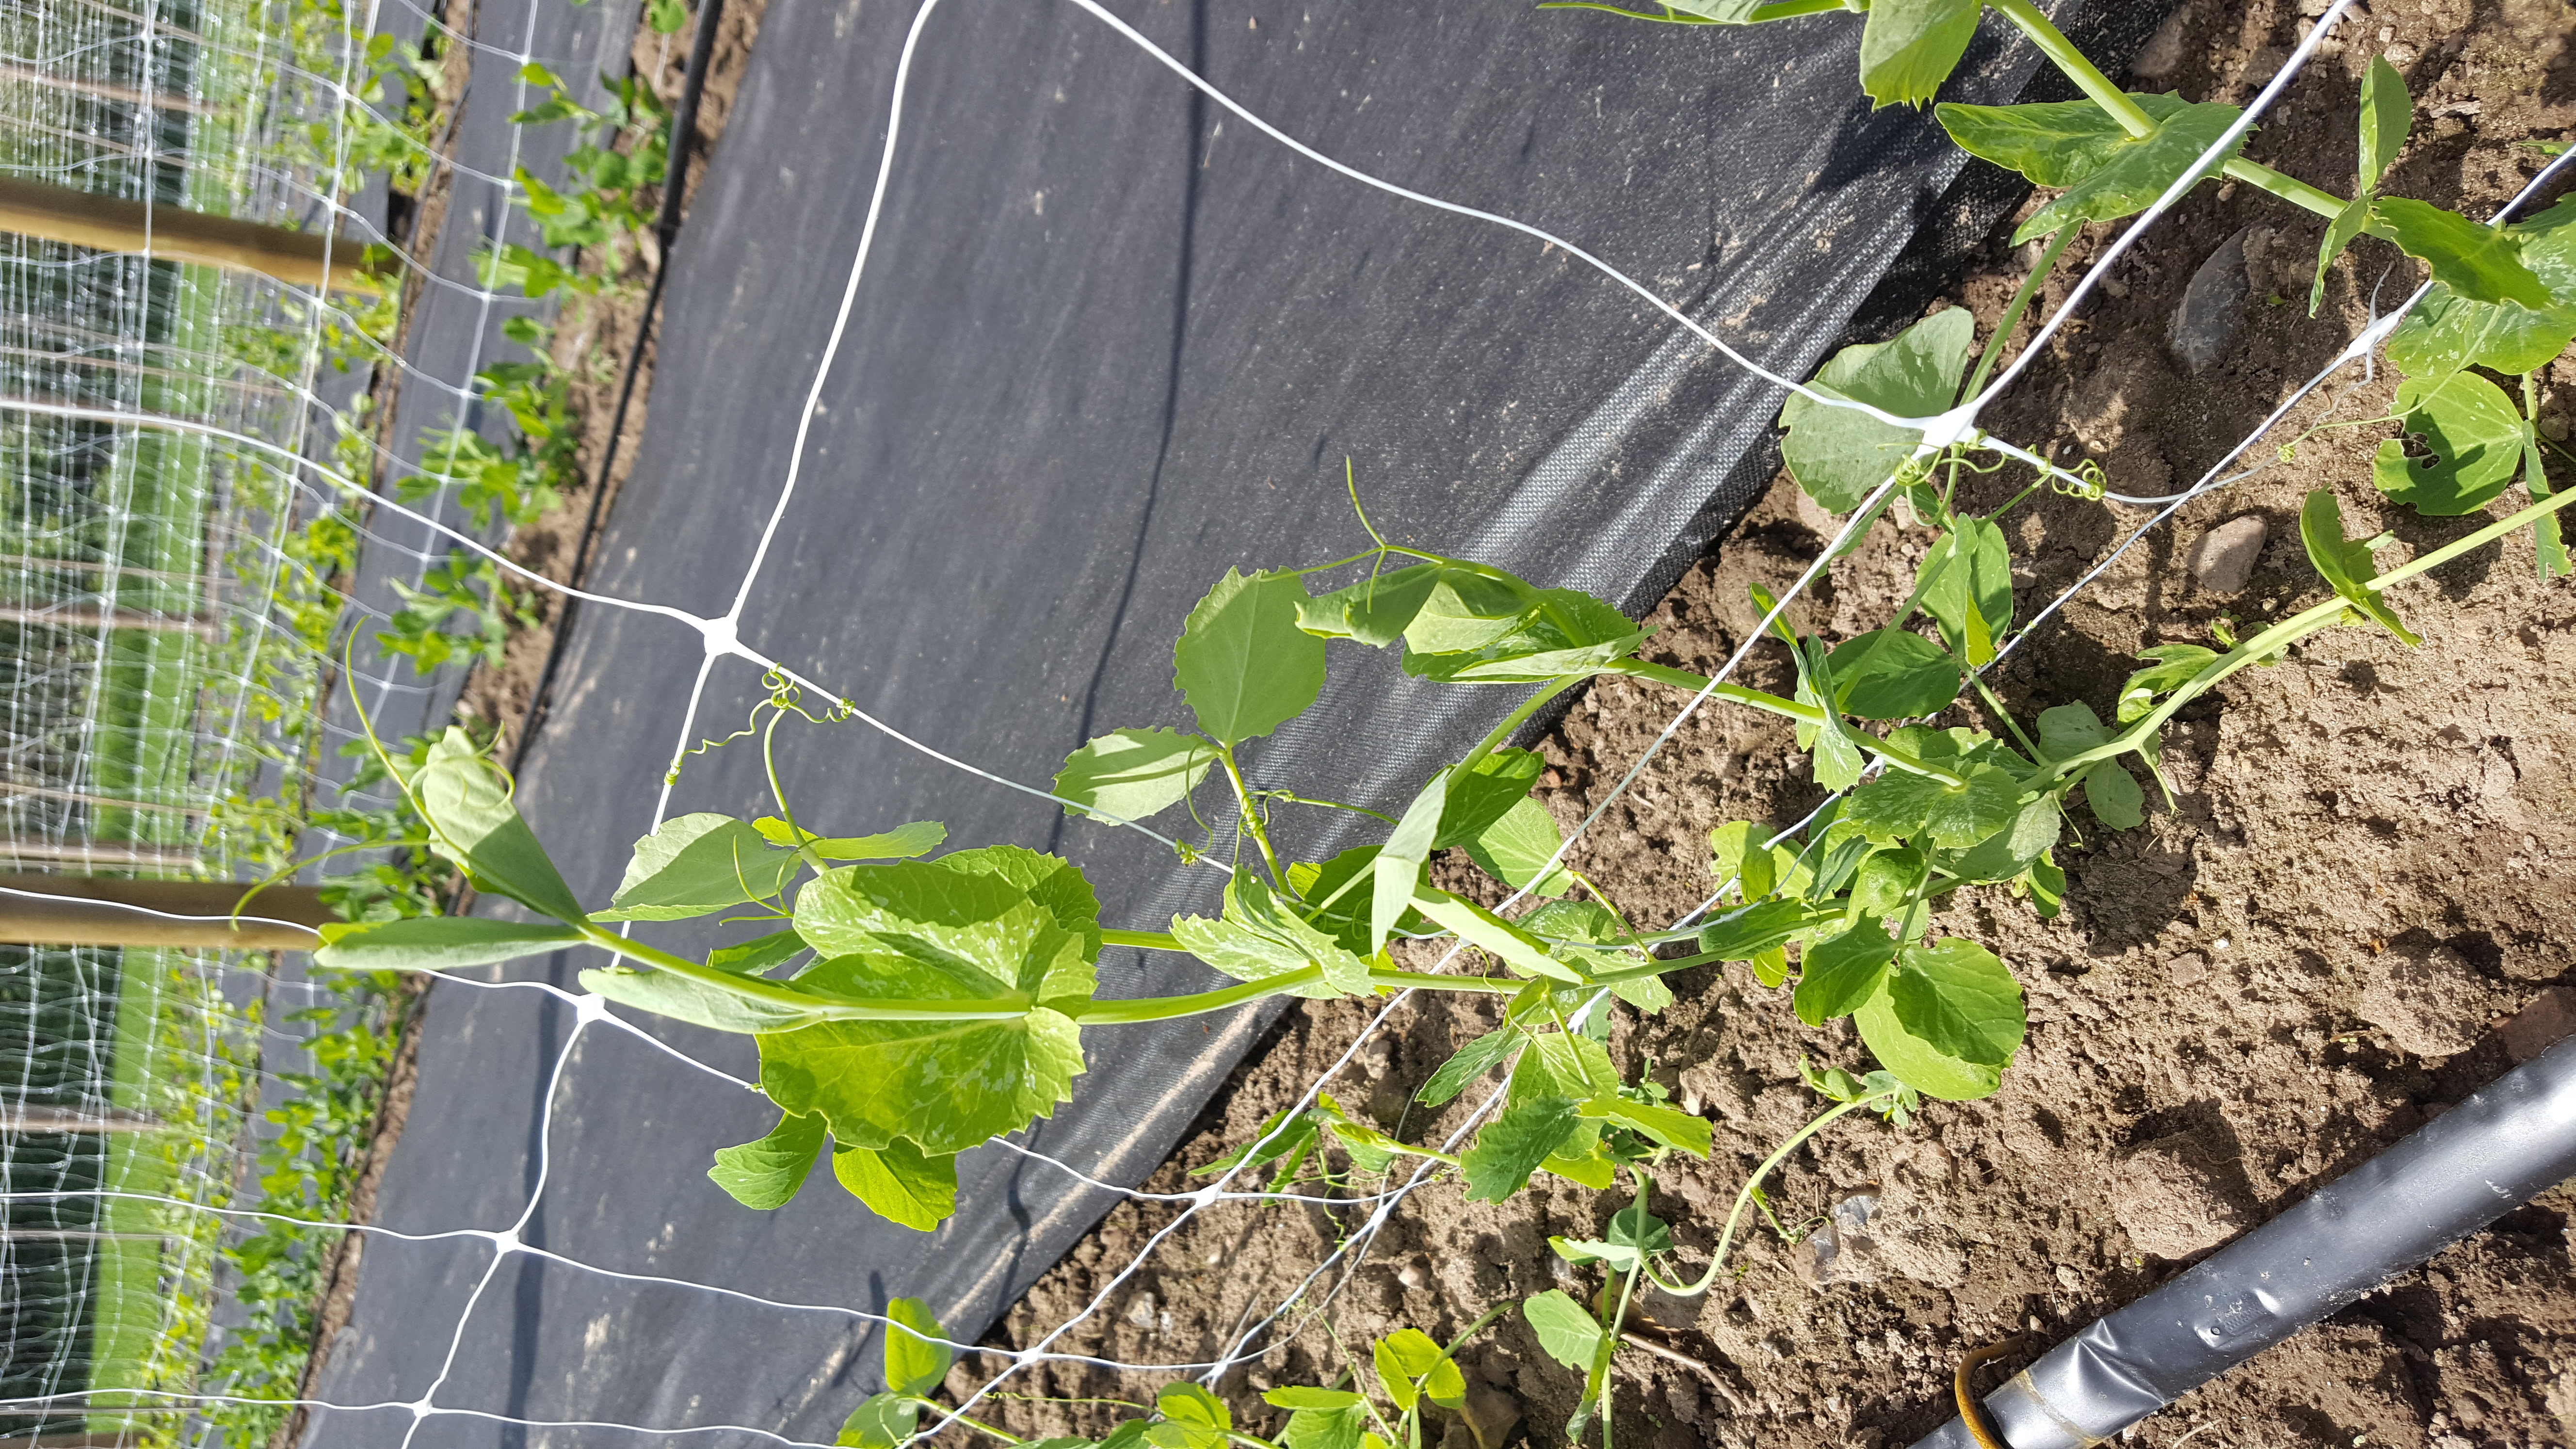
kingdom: Plantae
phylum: Tracheophyta
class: Magnoliopsida
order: Fabales
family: Fabaceae
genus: Lathyrus
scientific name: Lathyrus oleraceus
